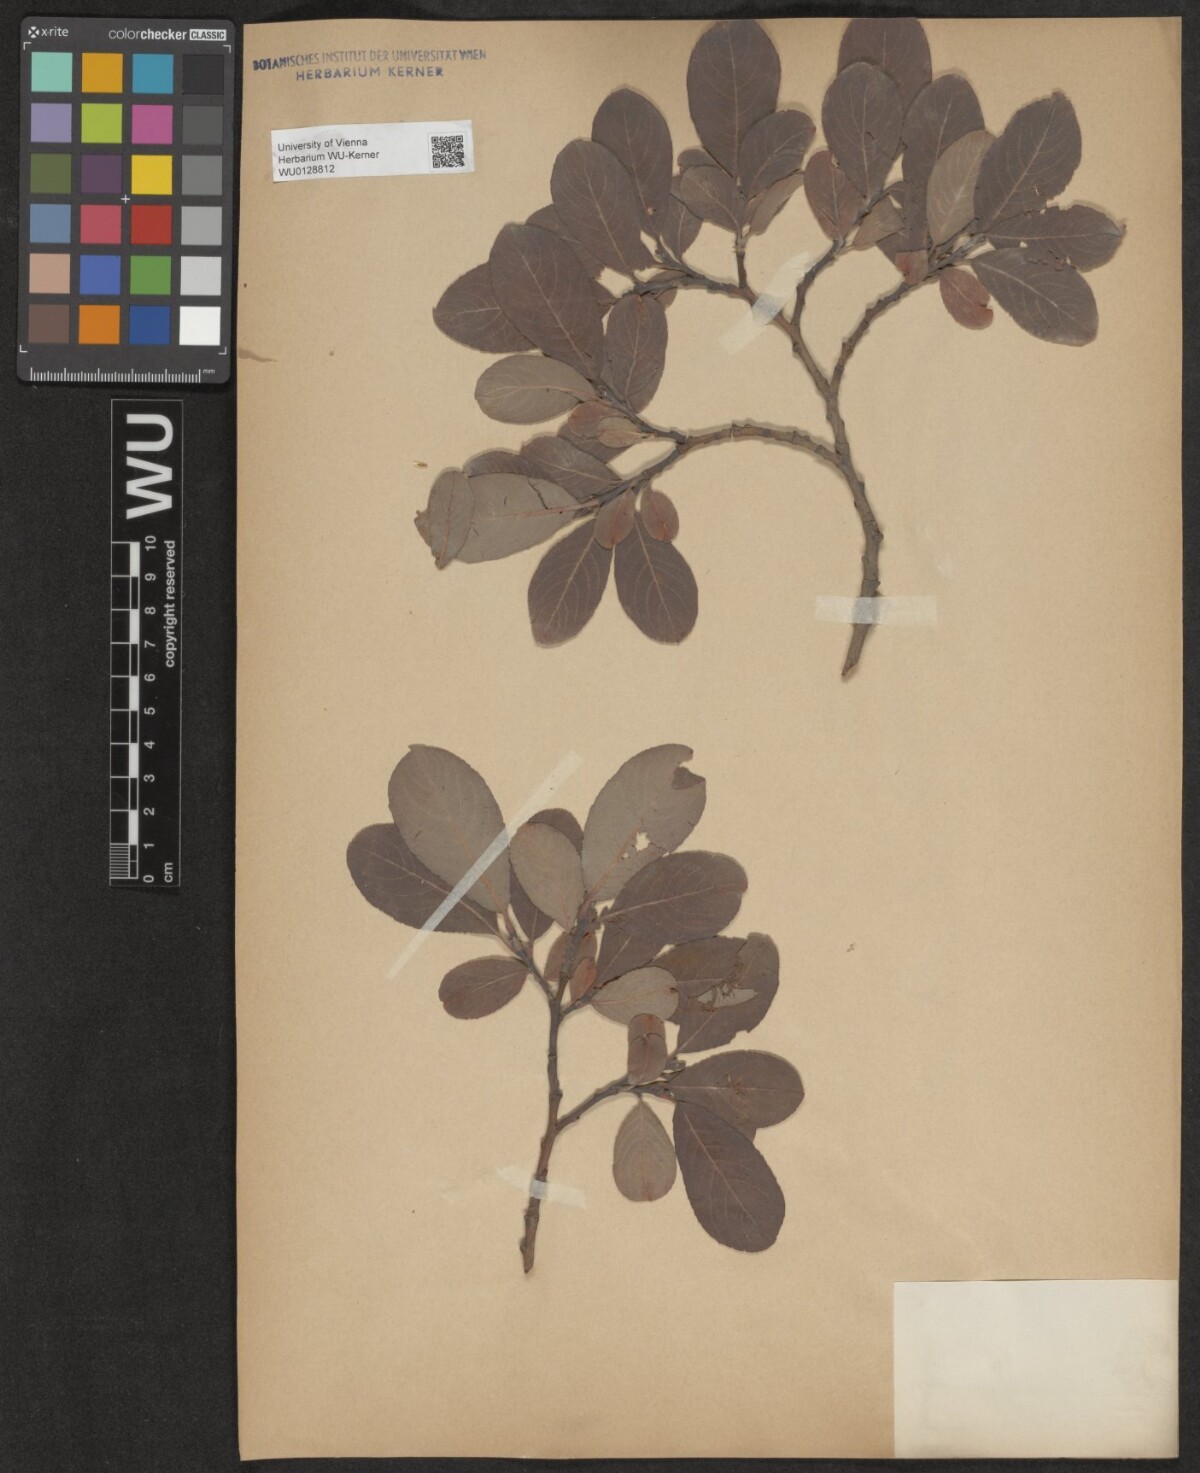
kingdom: Plantae
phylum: Tracheophyta
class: Magnoliopsida
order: Malpighiales
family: Salicaceae
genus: Salix
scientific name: Salix appendiculata
